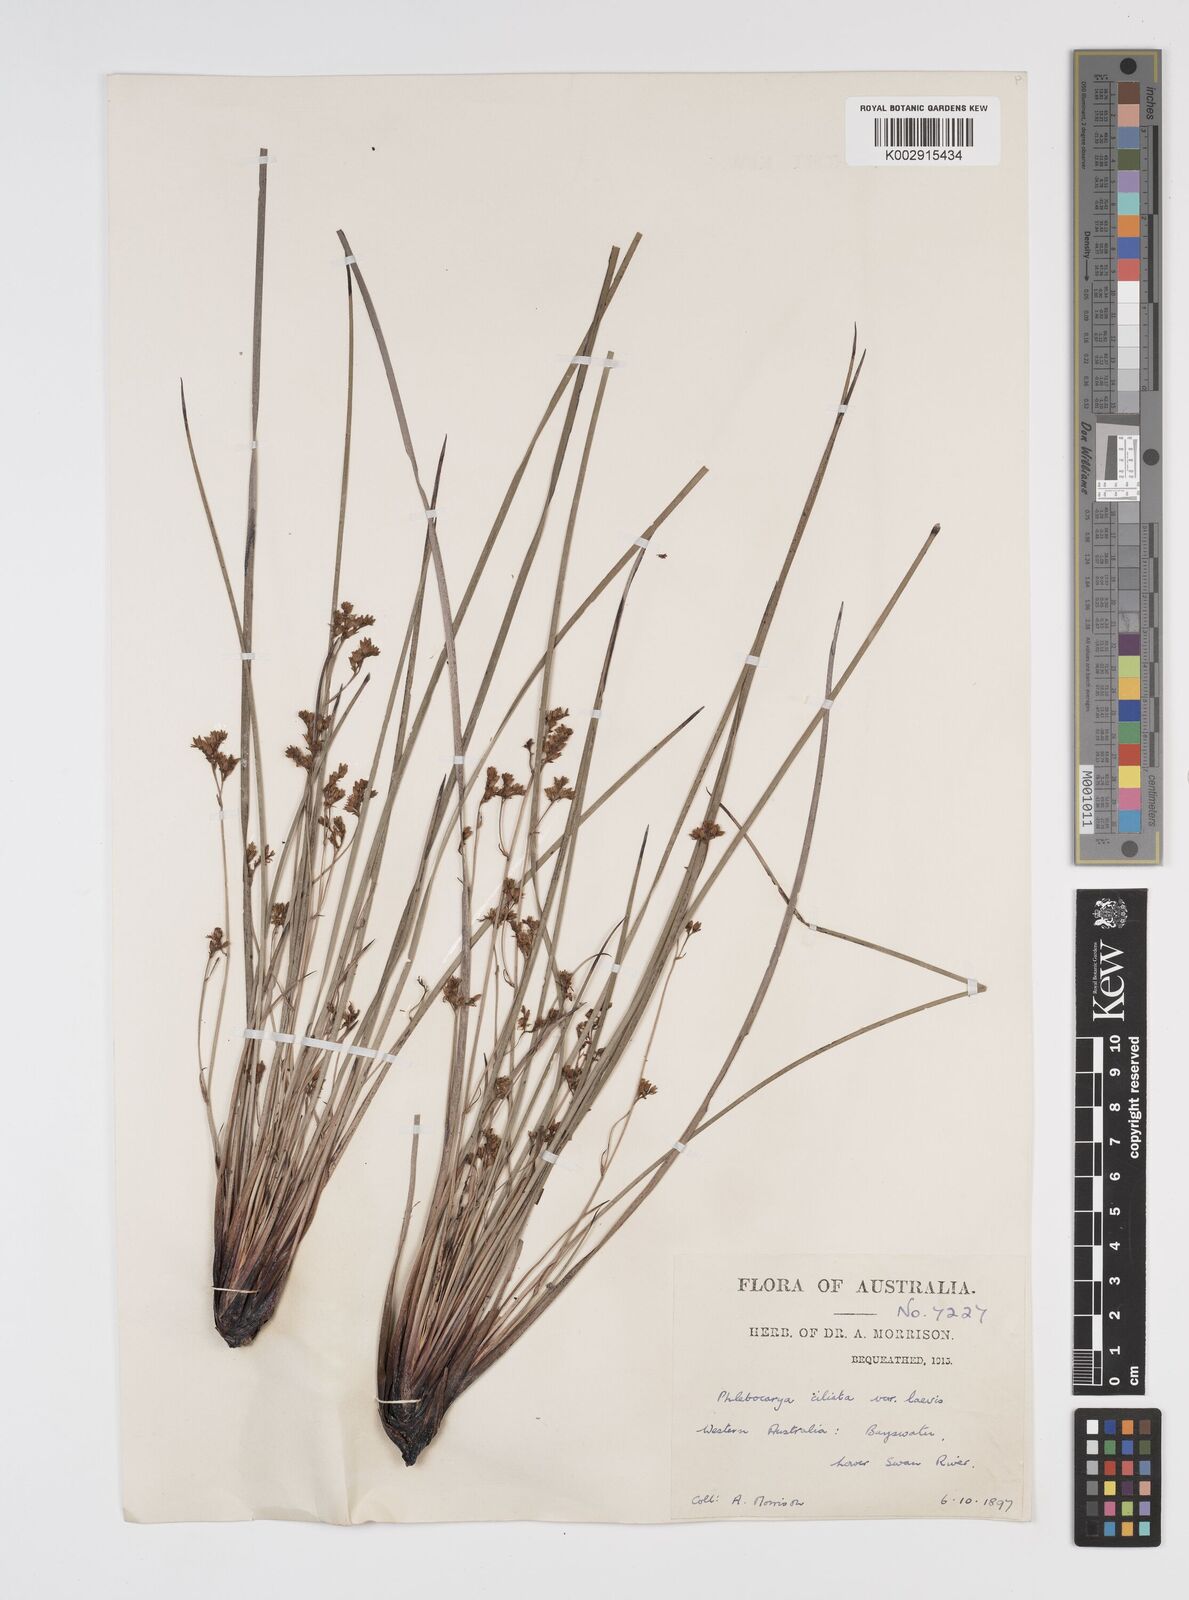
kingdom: Plantae
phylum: Tracheophyta
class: Liliopsida
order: Commelinales
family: Haemodoraceae
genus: Phlebocarya
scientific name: Phlebocarya ciliata
